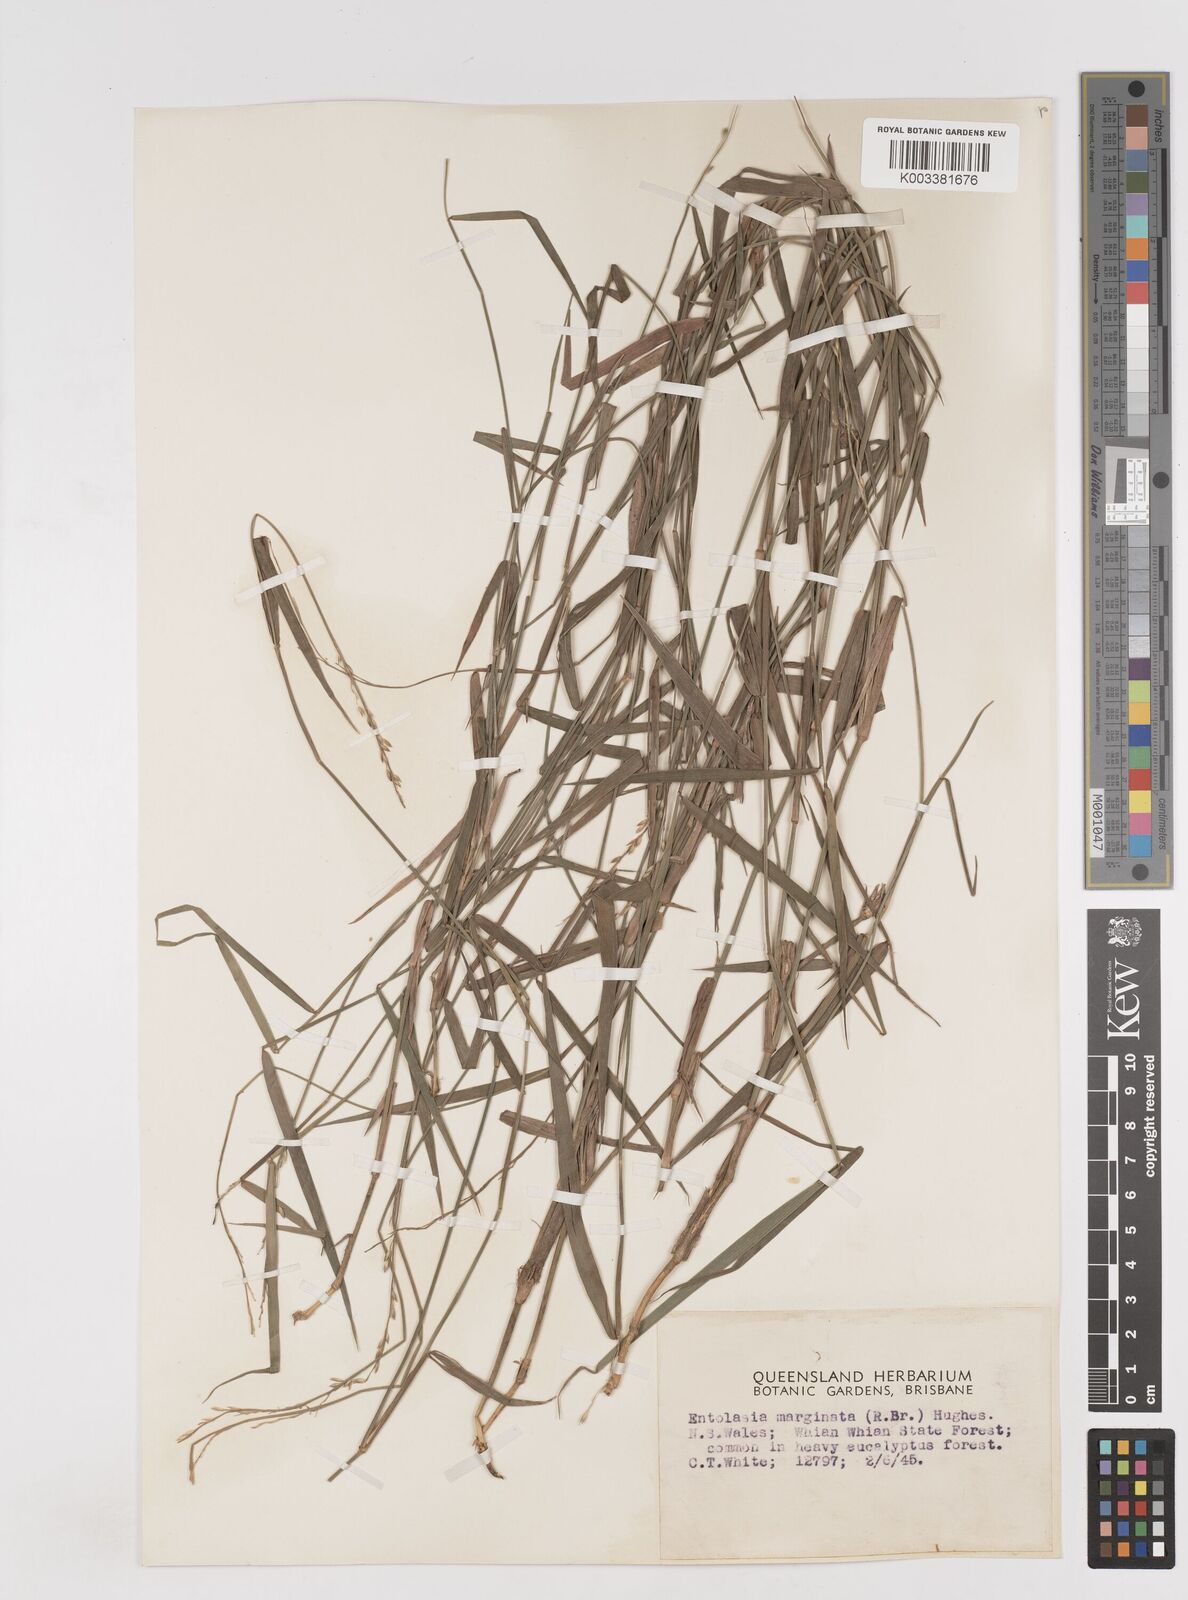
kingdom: Plantae
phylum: Tracheophyta
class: Liliopsida
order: Poales
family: Poaceae
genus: Entolasia
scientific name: Entolasia marginata
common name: Australian panicgrass
